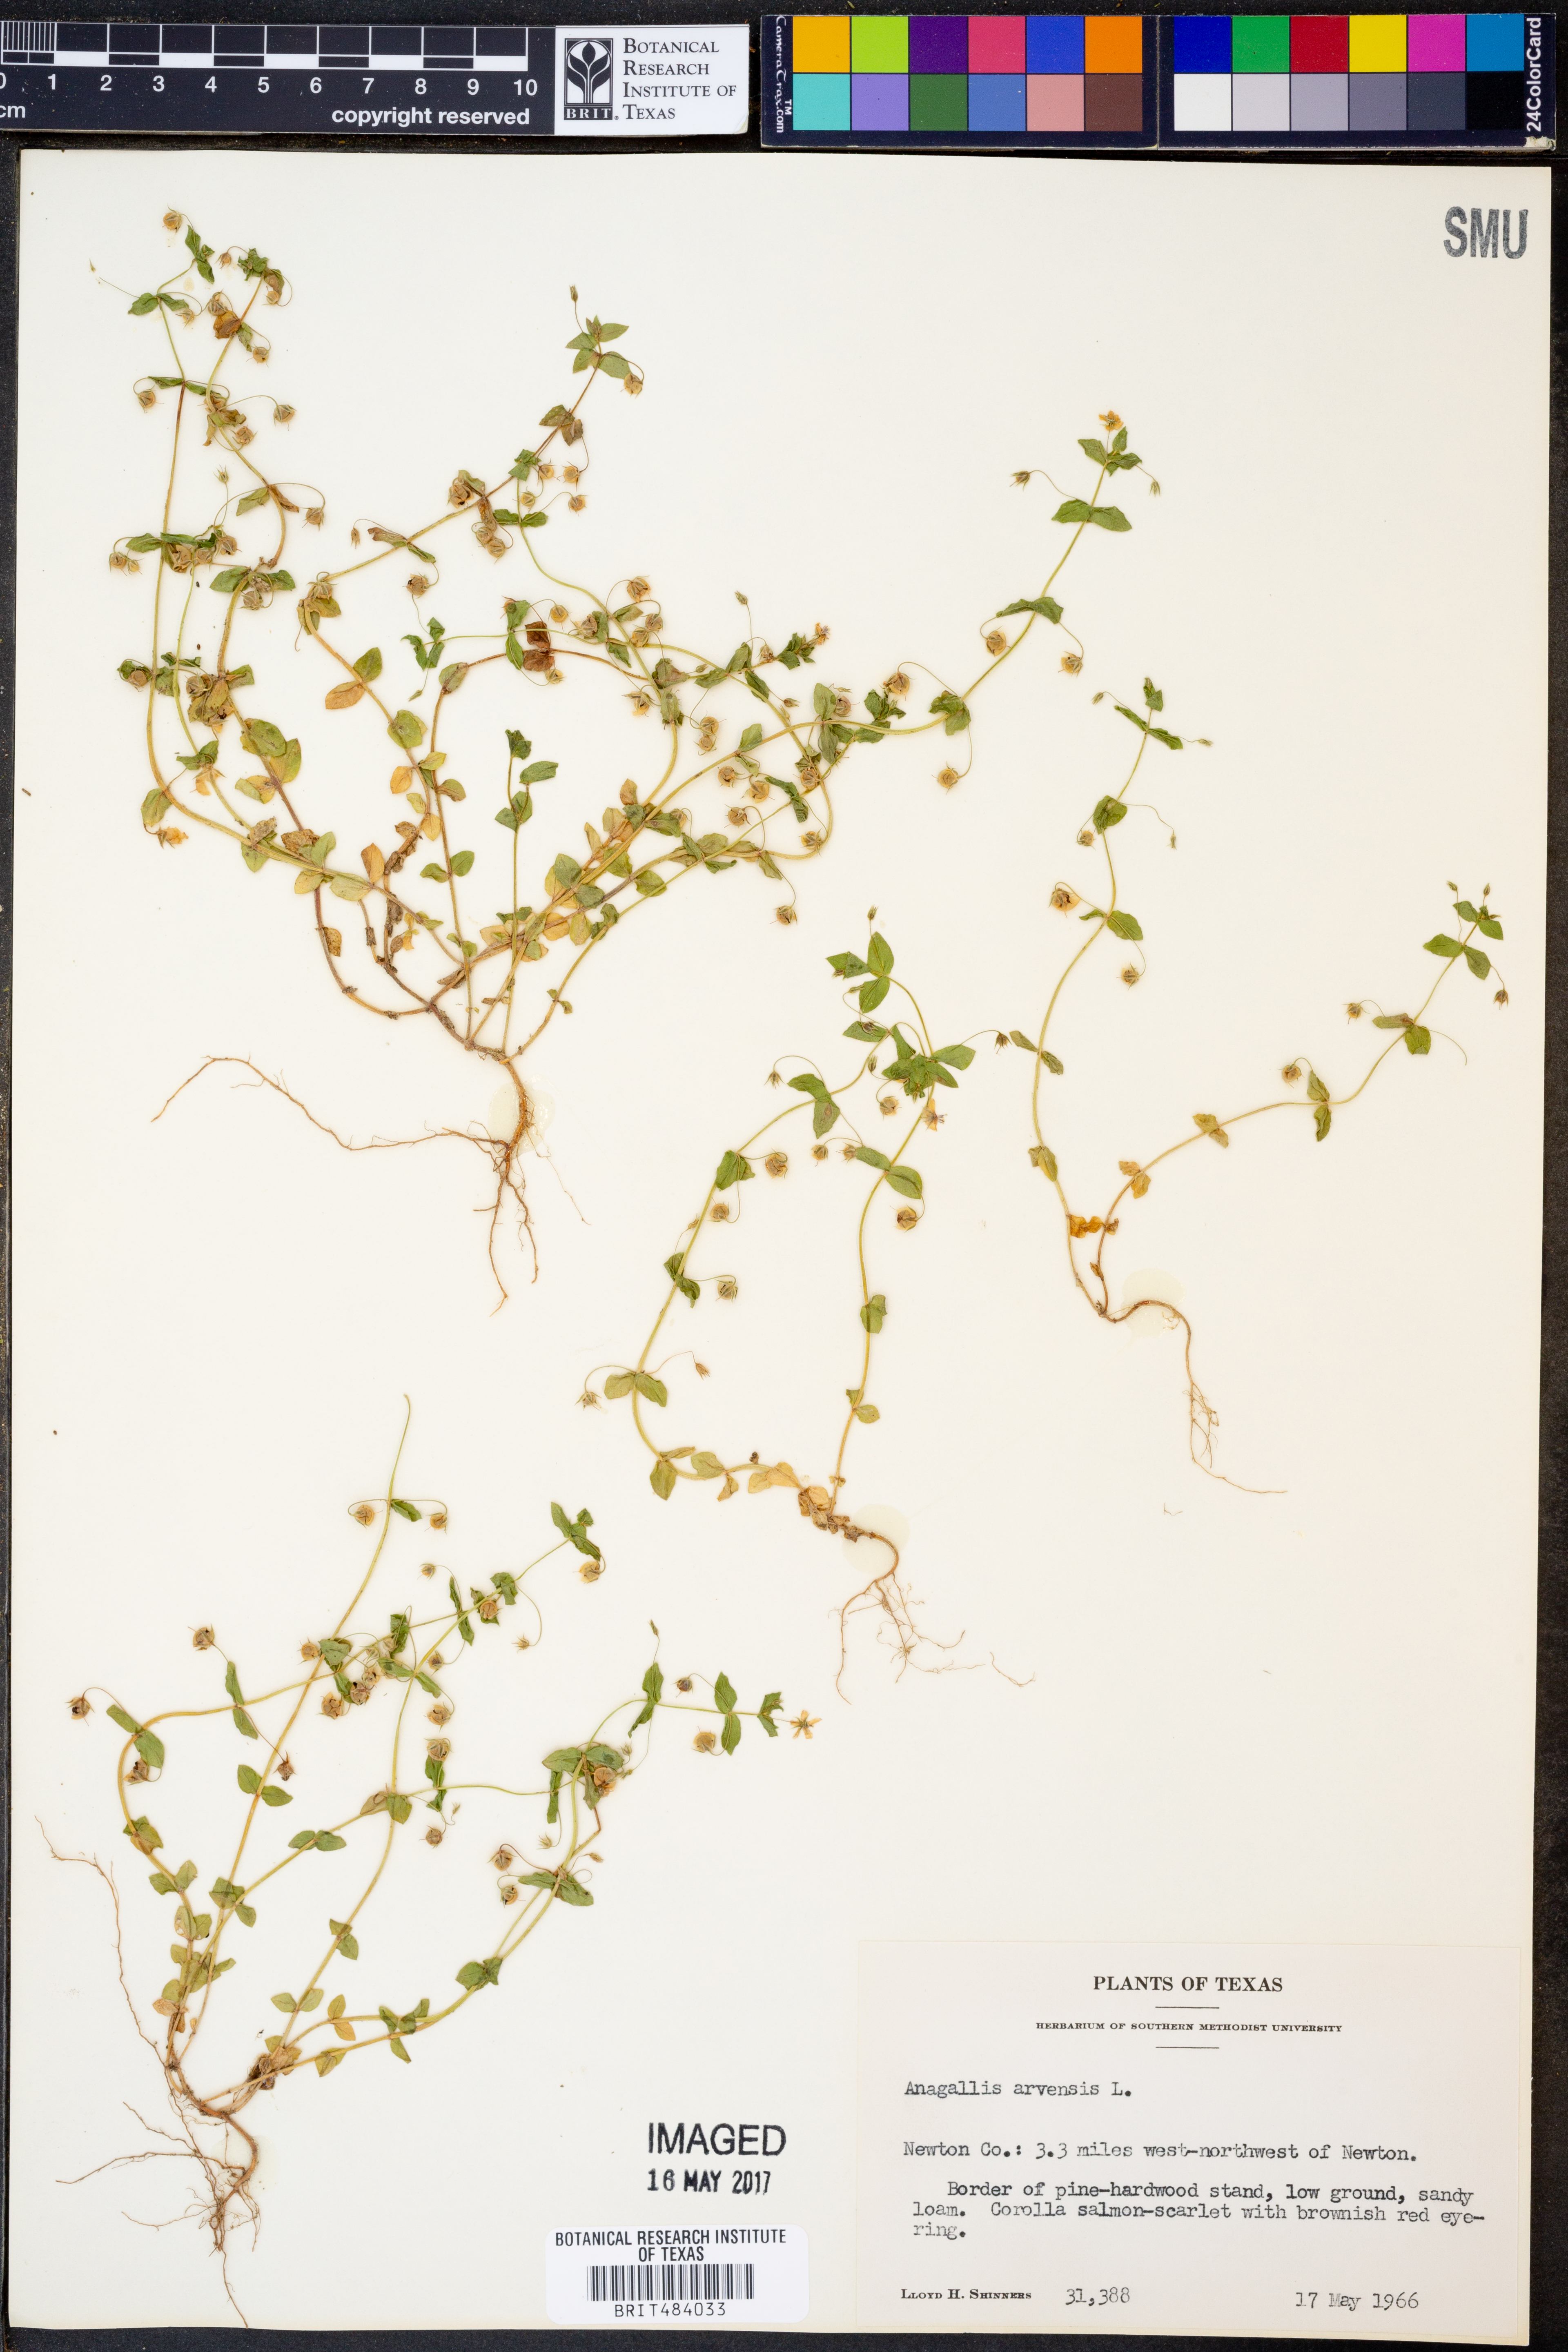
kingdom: Plantae
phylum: Tracheophyta
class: Magnoliopsida
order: Ericales
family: Primulaceae
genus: Lysimachia
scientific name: Lysimachia arvensis
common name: Scarlet pimpernel
